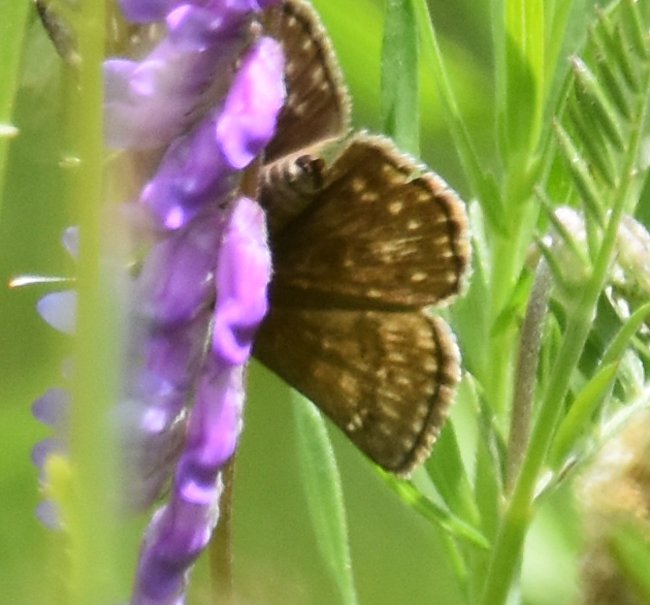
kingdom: Animalia
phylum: Arthropoda
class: Insecta
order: Lepidoptera
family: Hesperiidae
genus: Gesta
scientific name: Gesta
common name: Wild Indigo Duskywing
